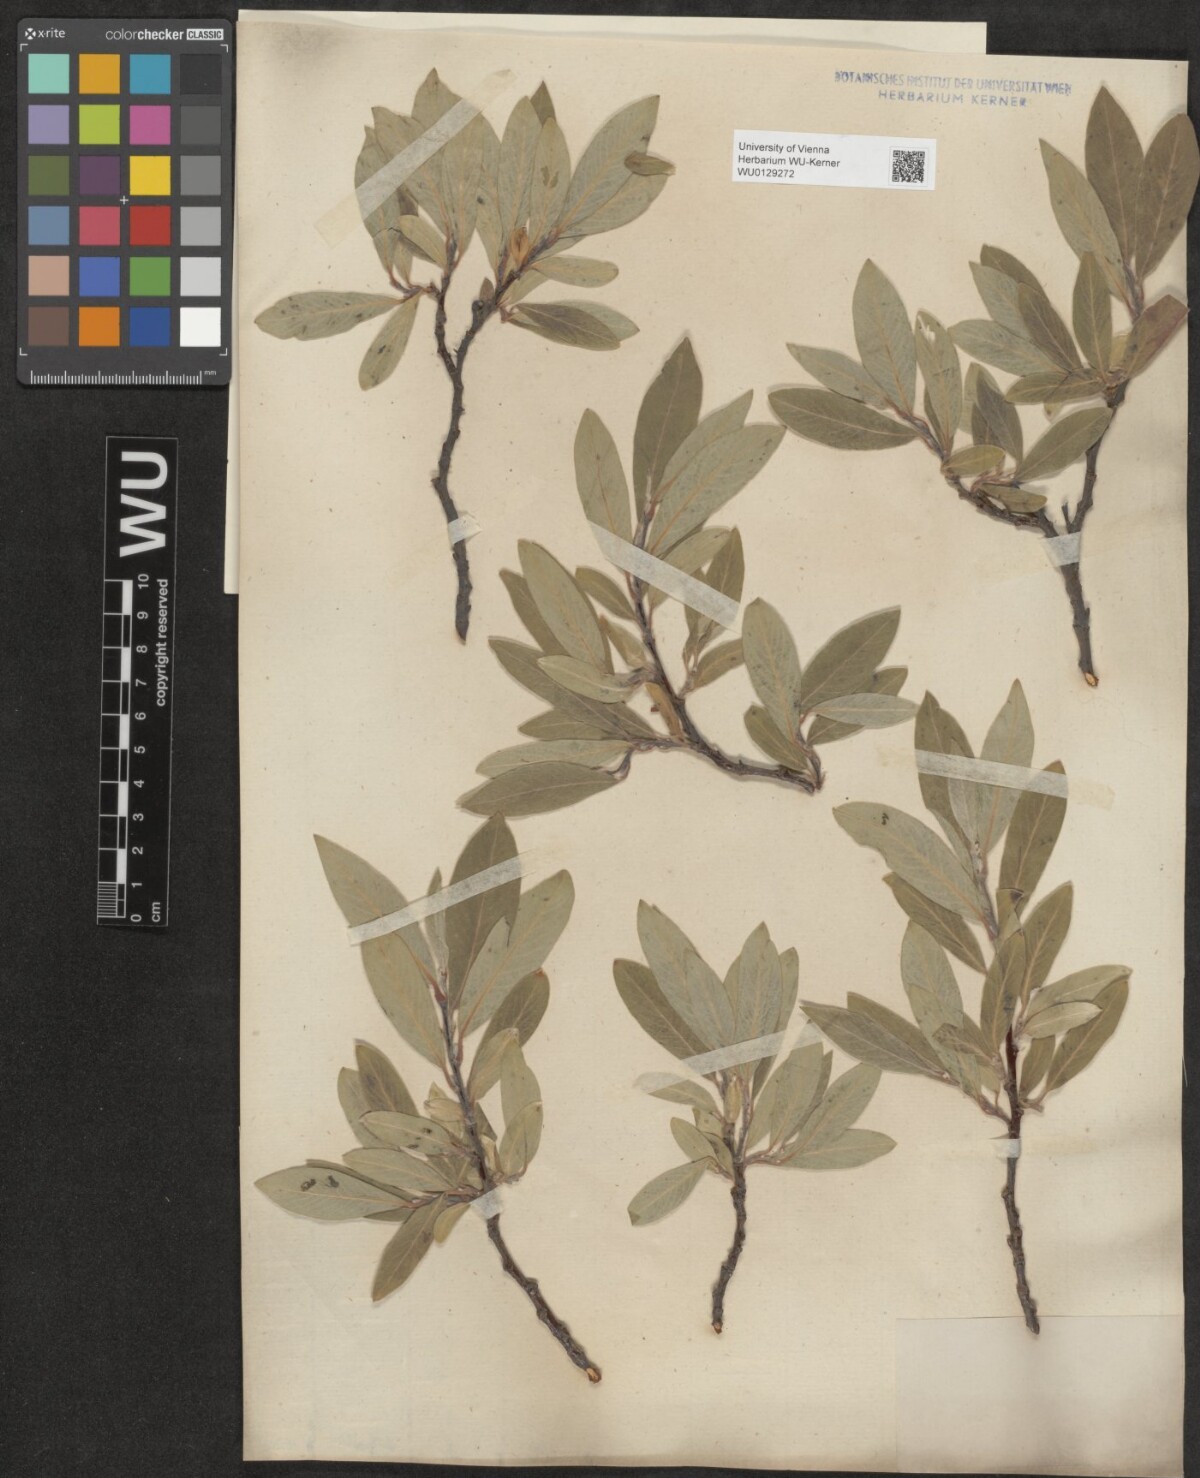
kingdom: Plantae
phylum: Tracheophyta
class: Magnoliopsida
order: Malpighiales
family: Salicaceae
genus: Salix
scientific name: Salix glauca
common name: Glaucous willow
